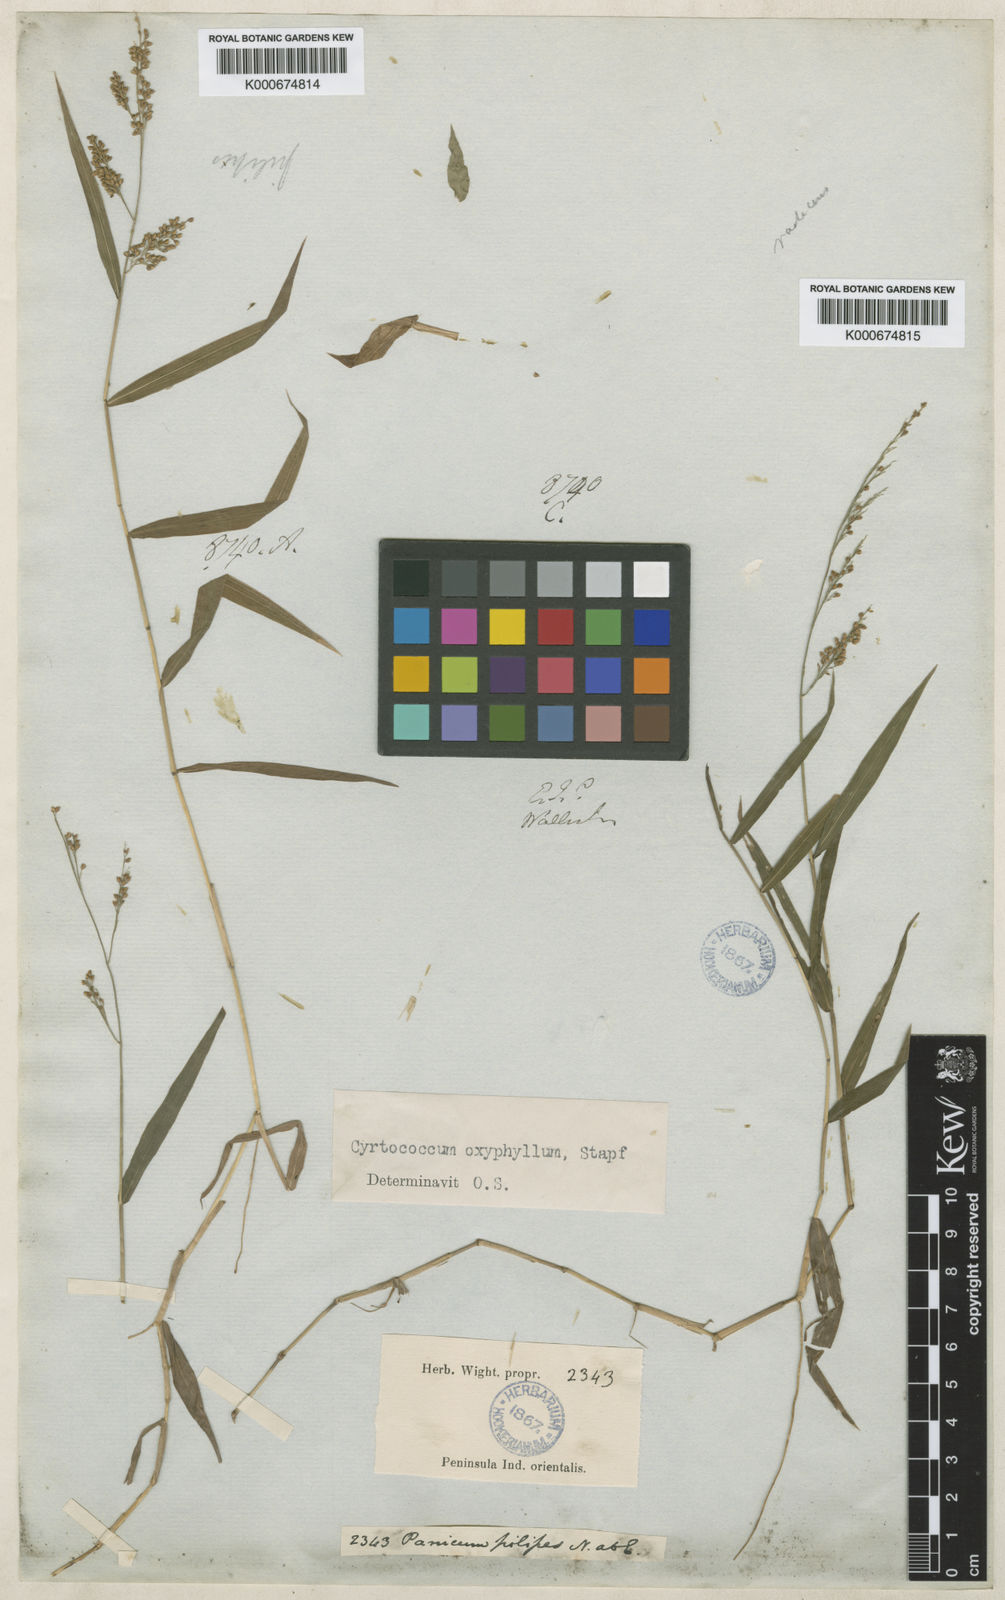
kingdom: Plantae
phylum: Tracheophyta
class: Liliopsida
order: Poales
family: Poaceae
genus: Cyrtococcum
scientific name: Cyrtococcum oxyphyllum
